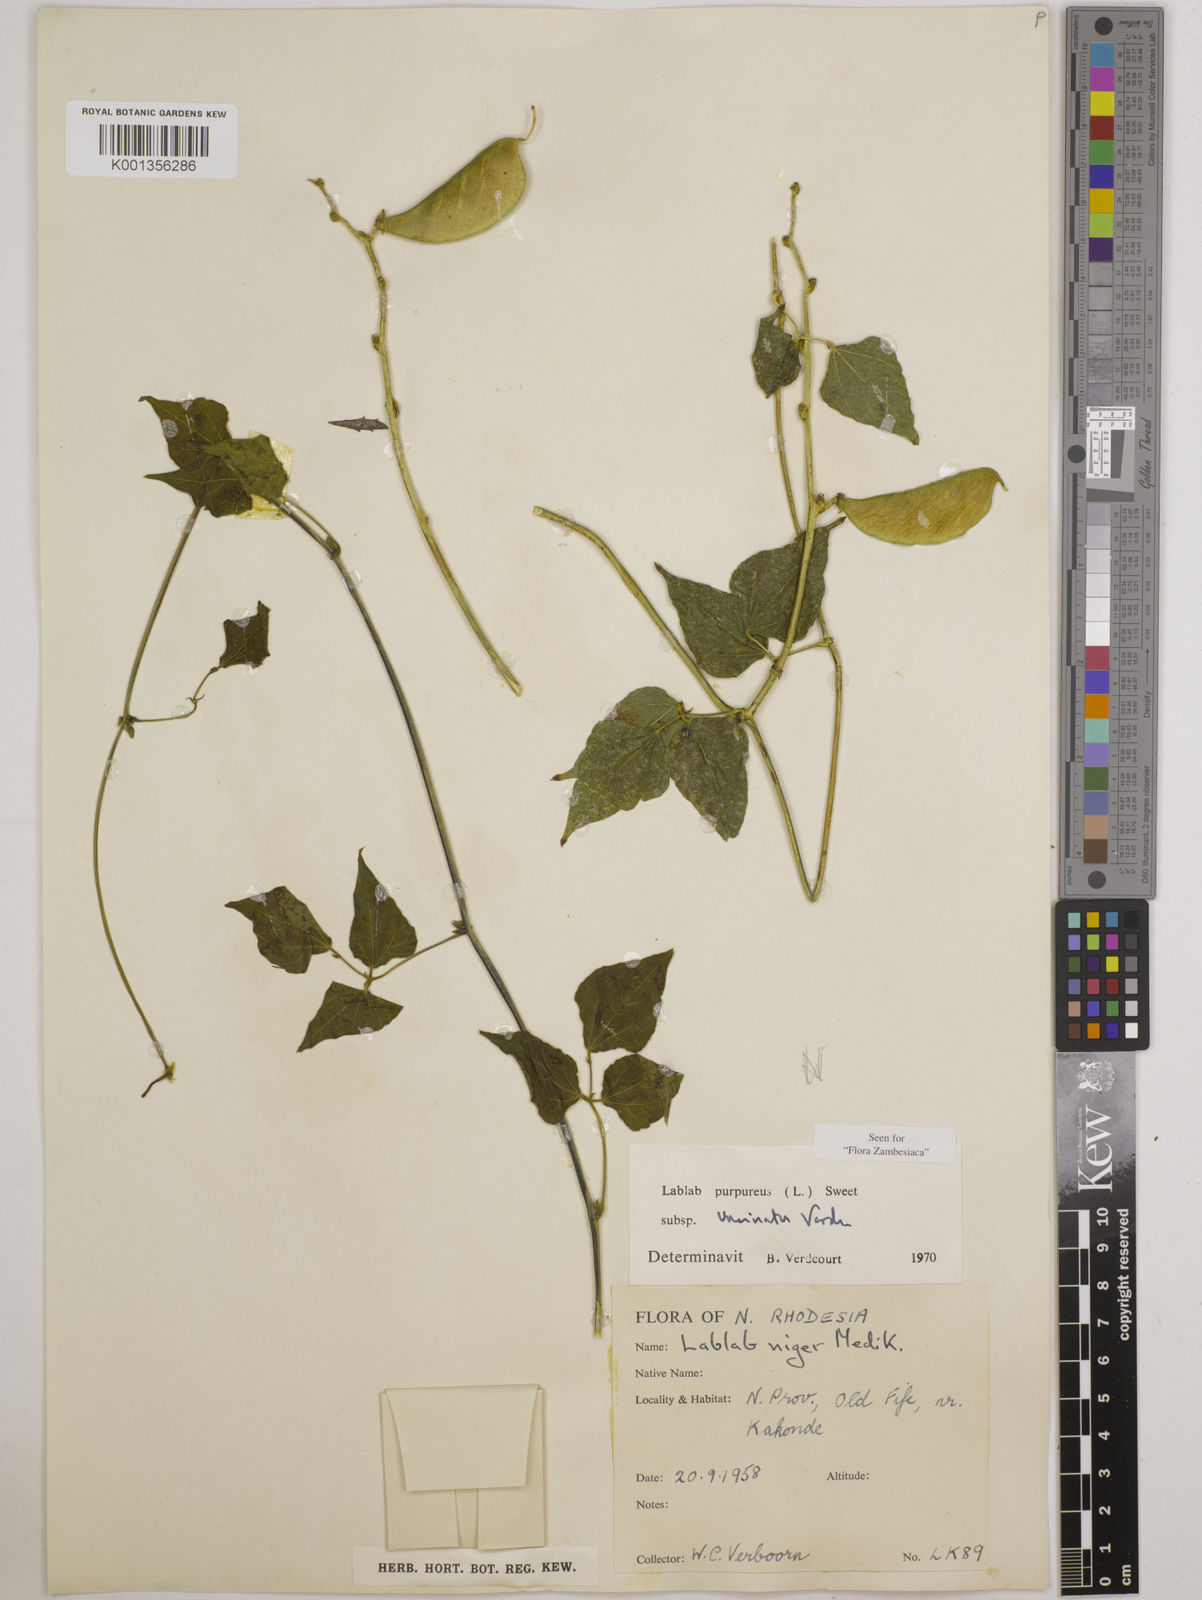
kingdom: Plantae
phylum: Tracheophyta
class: Magnoliopsida
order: Fabales
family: Fabaceae
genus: Lablab
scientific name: Lablab
